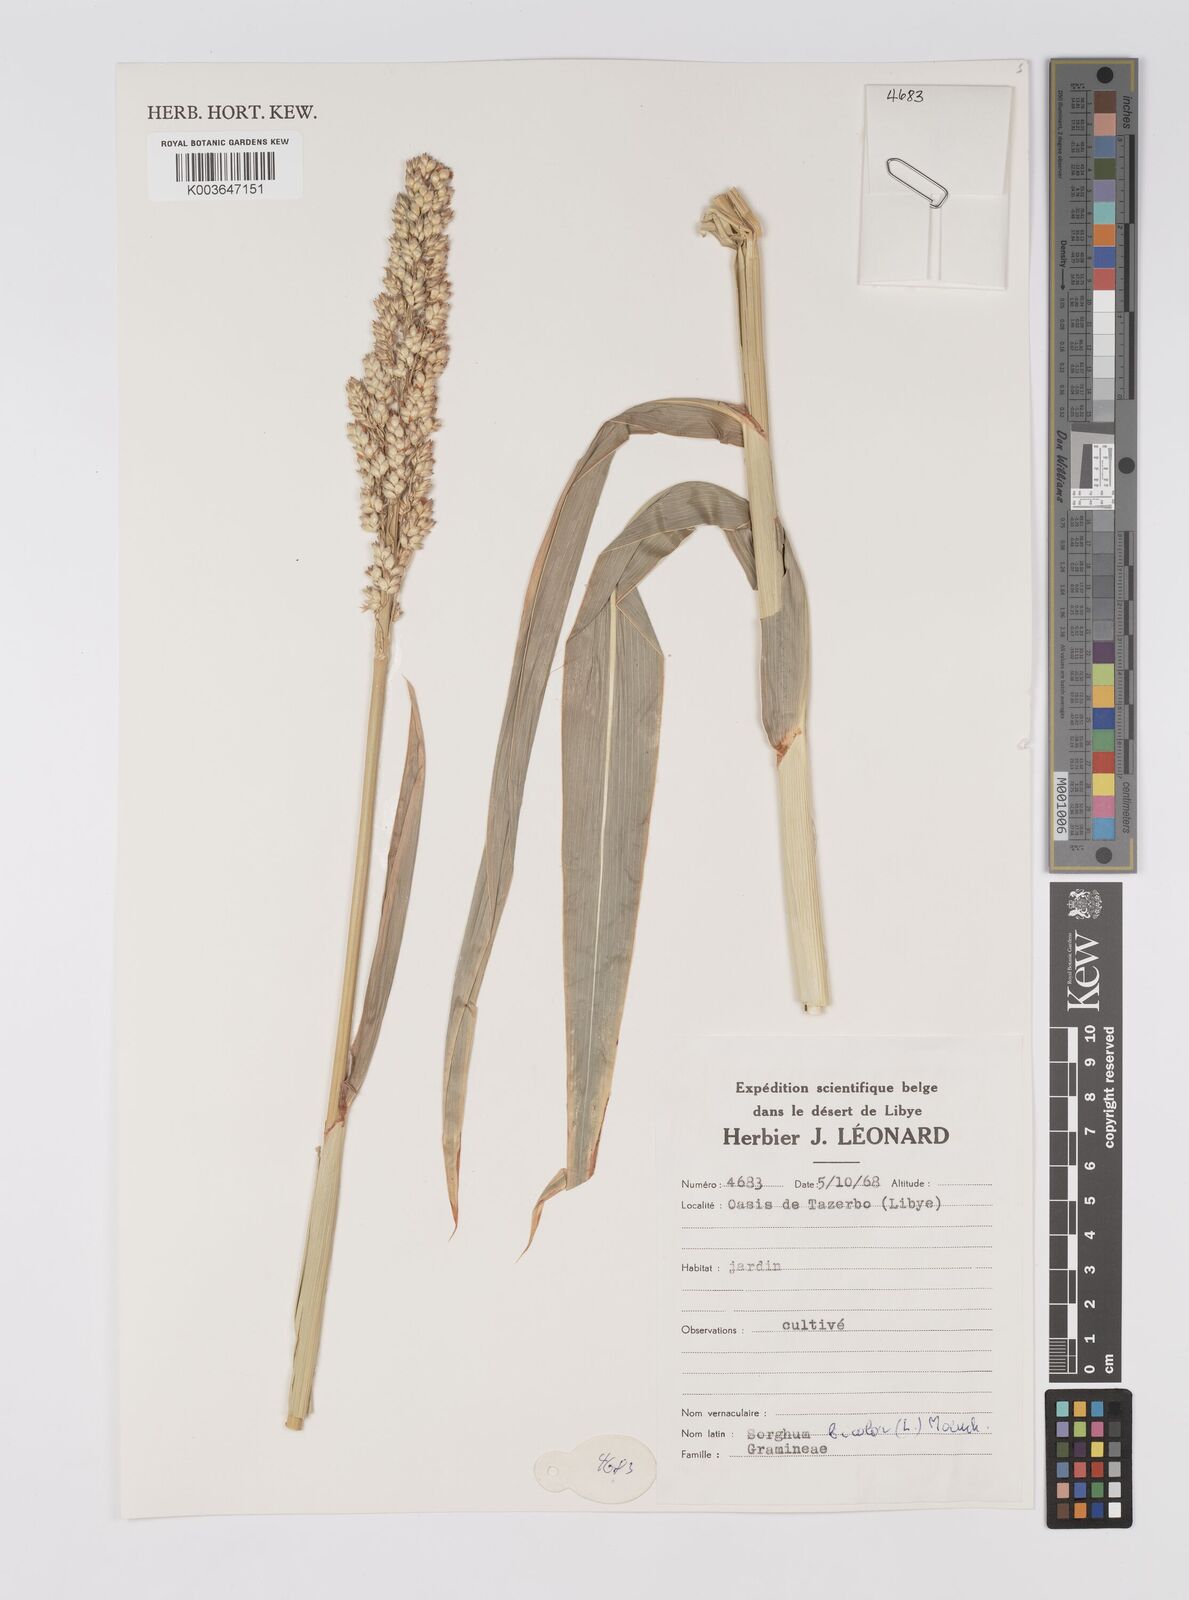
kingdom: Plantae
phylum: Tracheophyta
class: Liliopsida
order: Poales
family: Poaceae
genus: Sorghum
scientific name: Sorghum bicolor
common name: Sorghum
